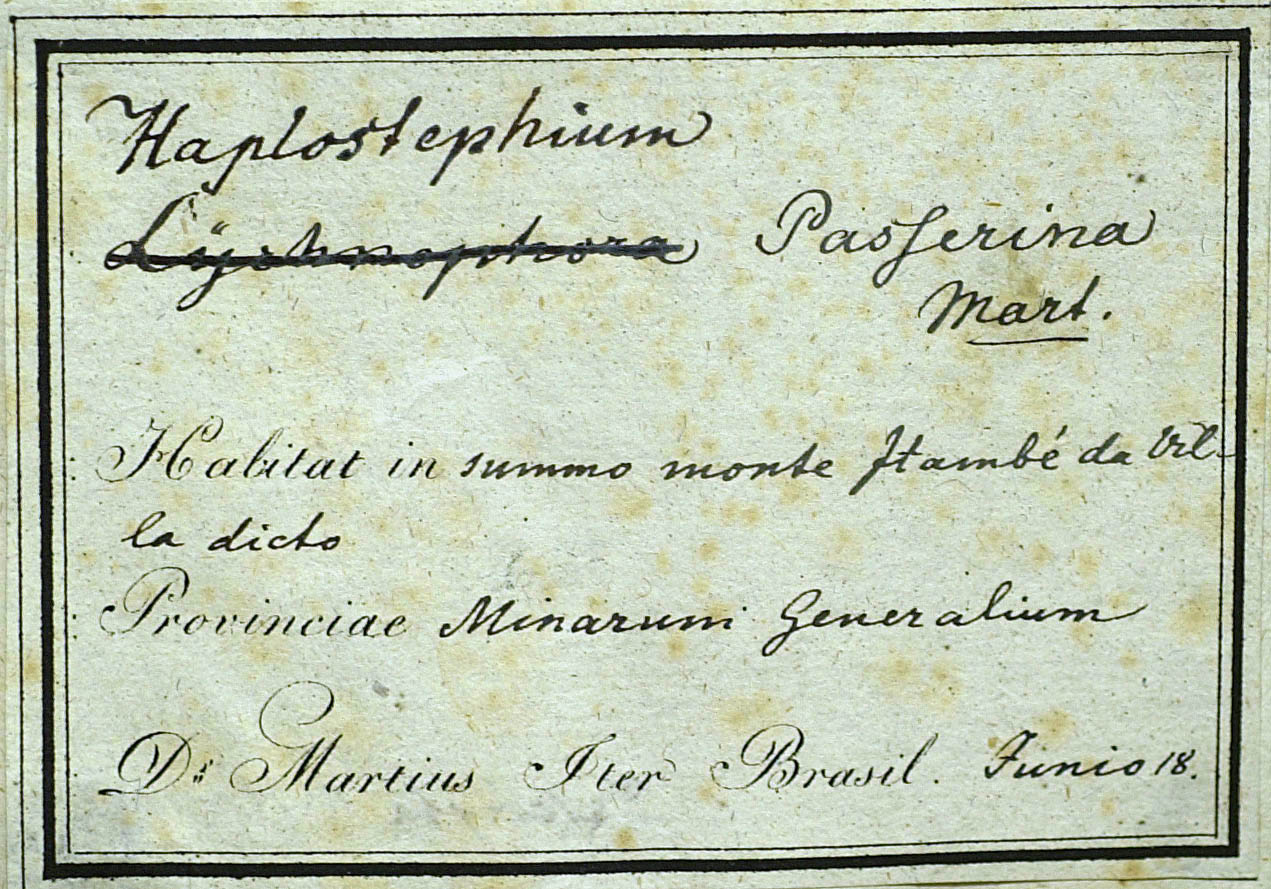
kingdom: Plantae
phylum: Tracheophyta
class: Magnoliopsida
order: Asterales
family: Asteraceae
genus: Lychnophora
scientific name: Lychnophora passerina
